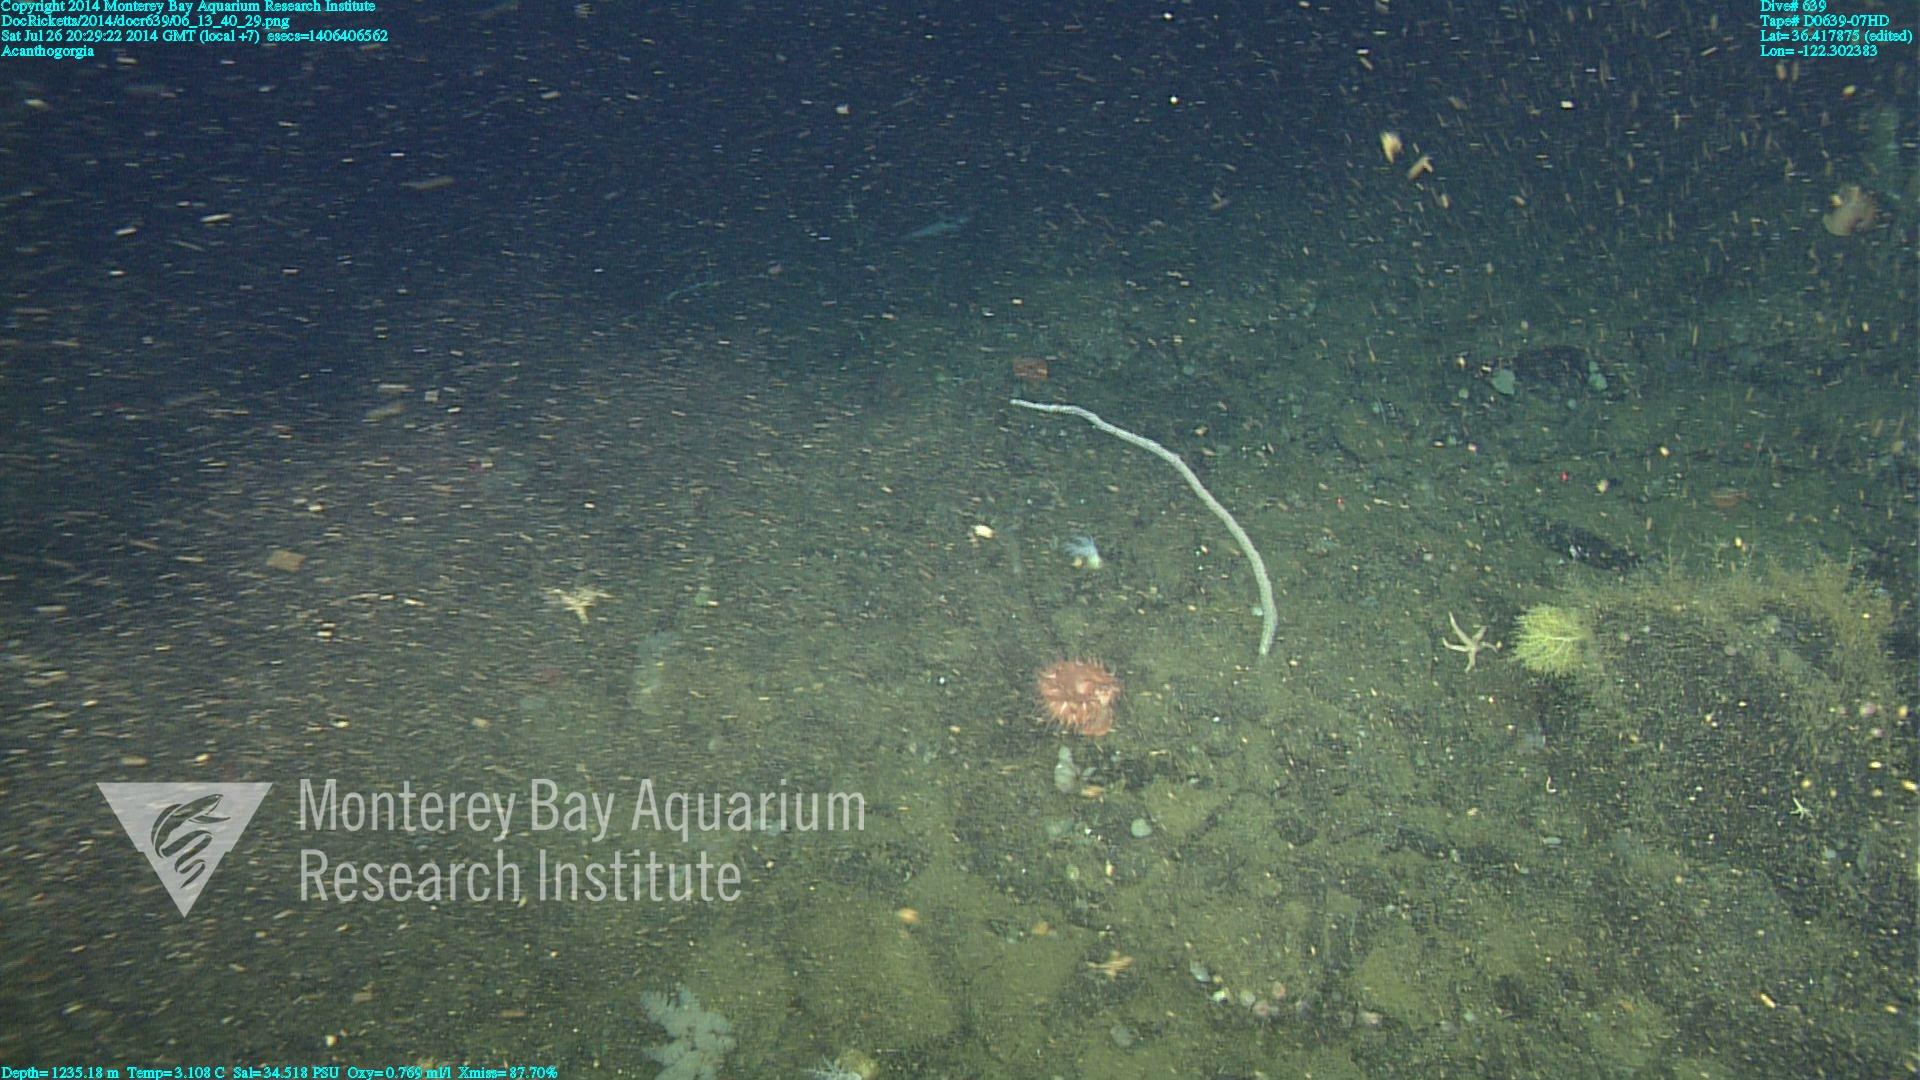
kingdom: Animalia
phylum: Cnidaria
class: Anthozoa
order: Malacalcyonacea
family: Paramuriceidae
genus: Acanthogorgia
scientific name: Acanthogorgia
